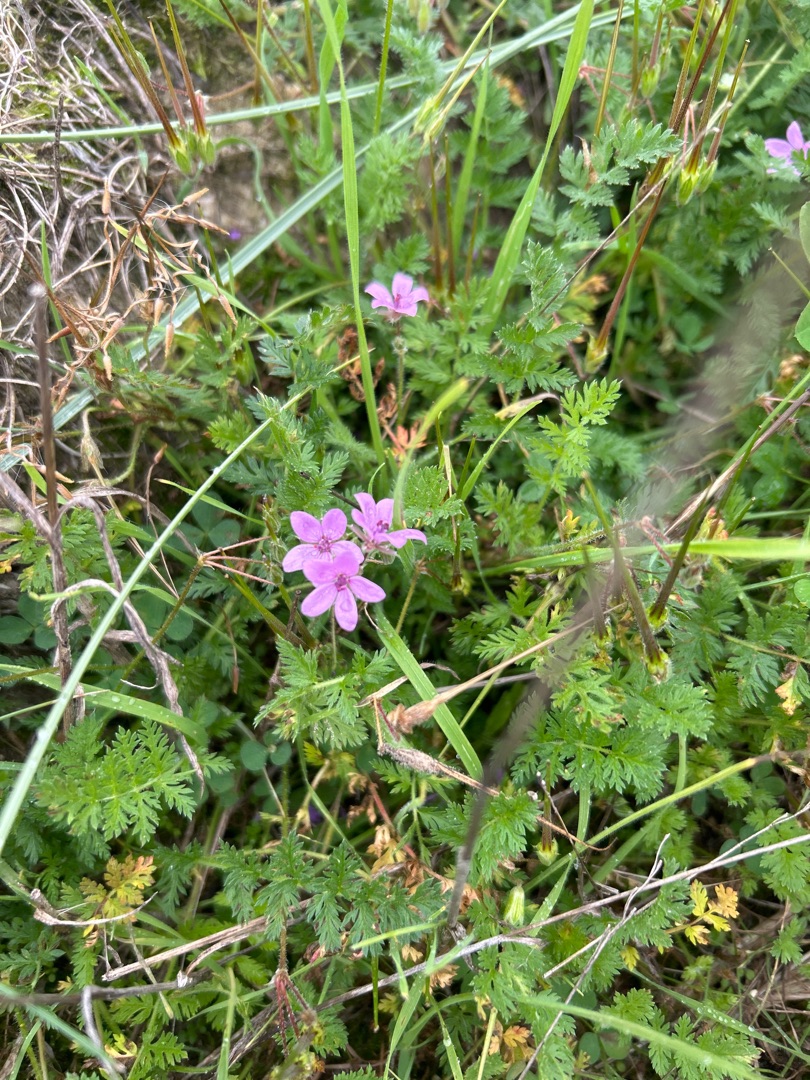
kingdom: Plantae
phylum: Tracheophyta
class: Magnoliopsida
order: Geraniales
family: Geraniaceae
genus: Erodium
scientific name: Erodium cicutarium
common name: Hejrenæb
